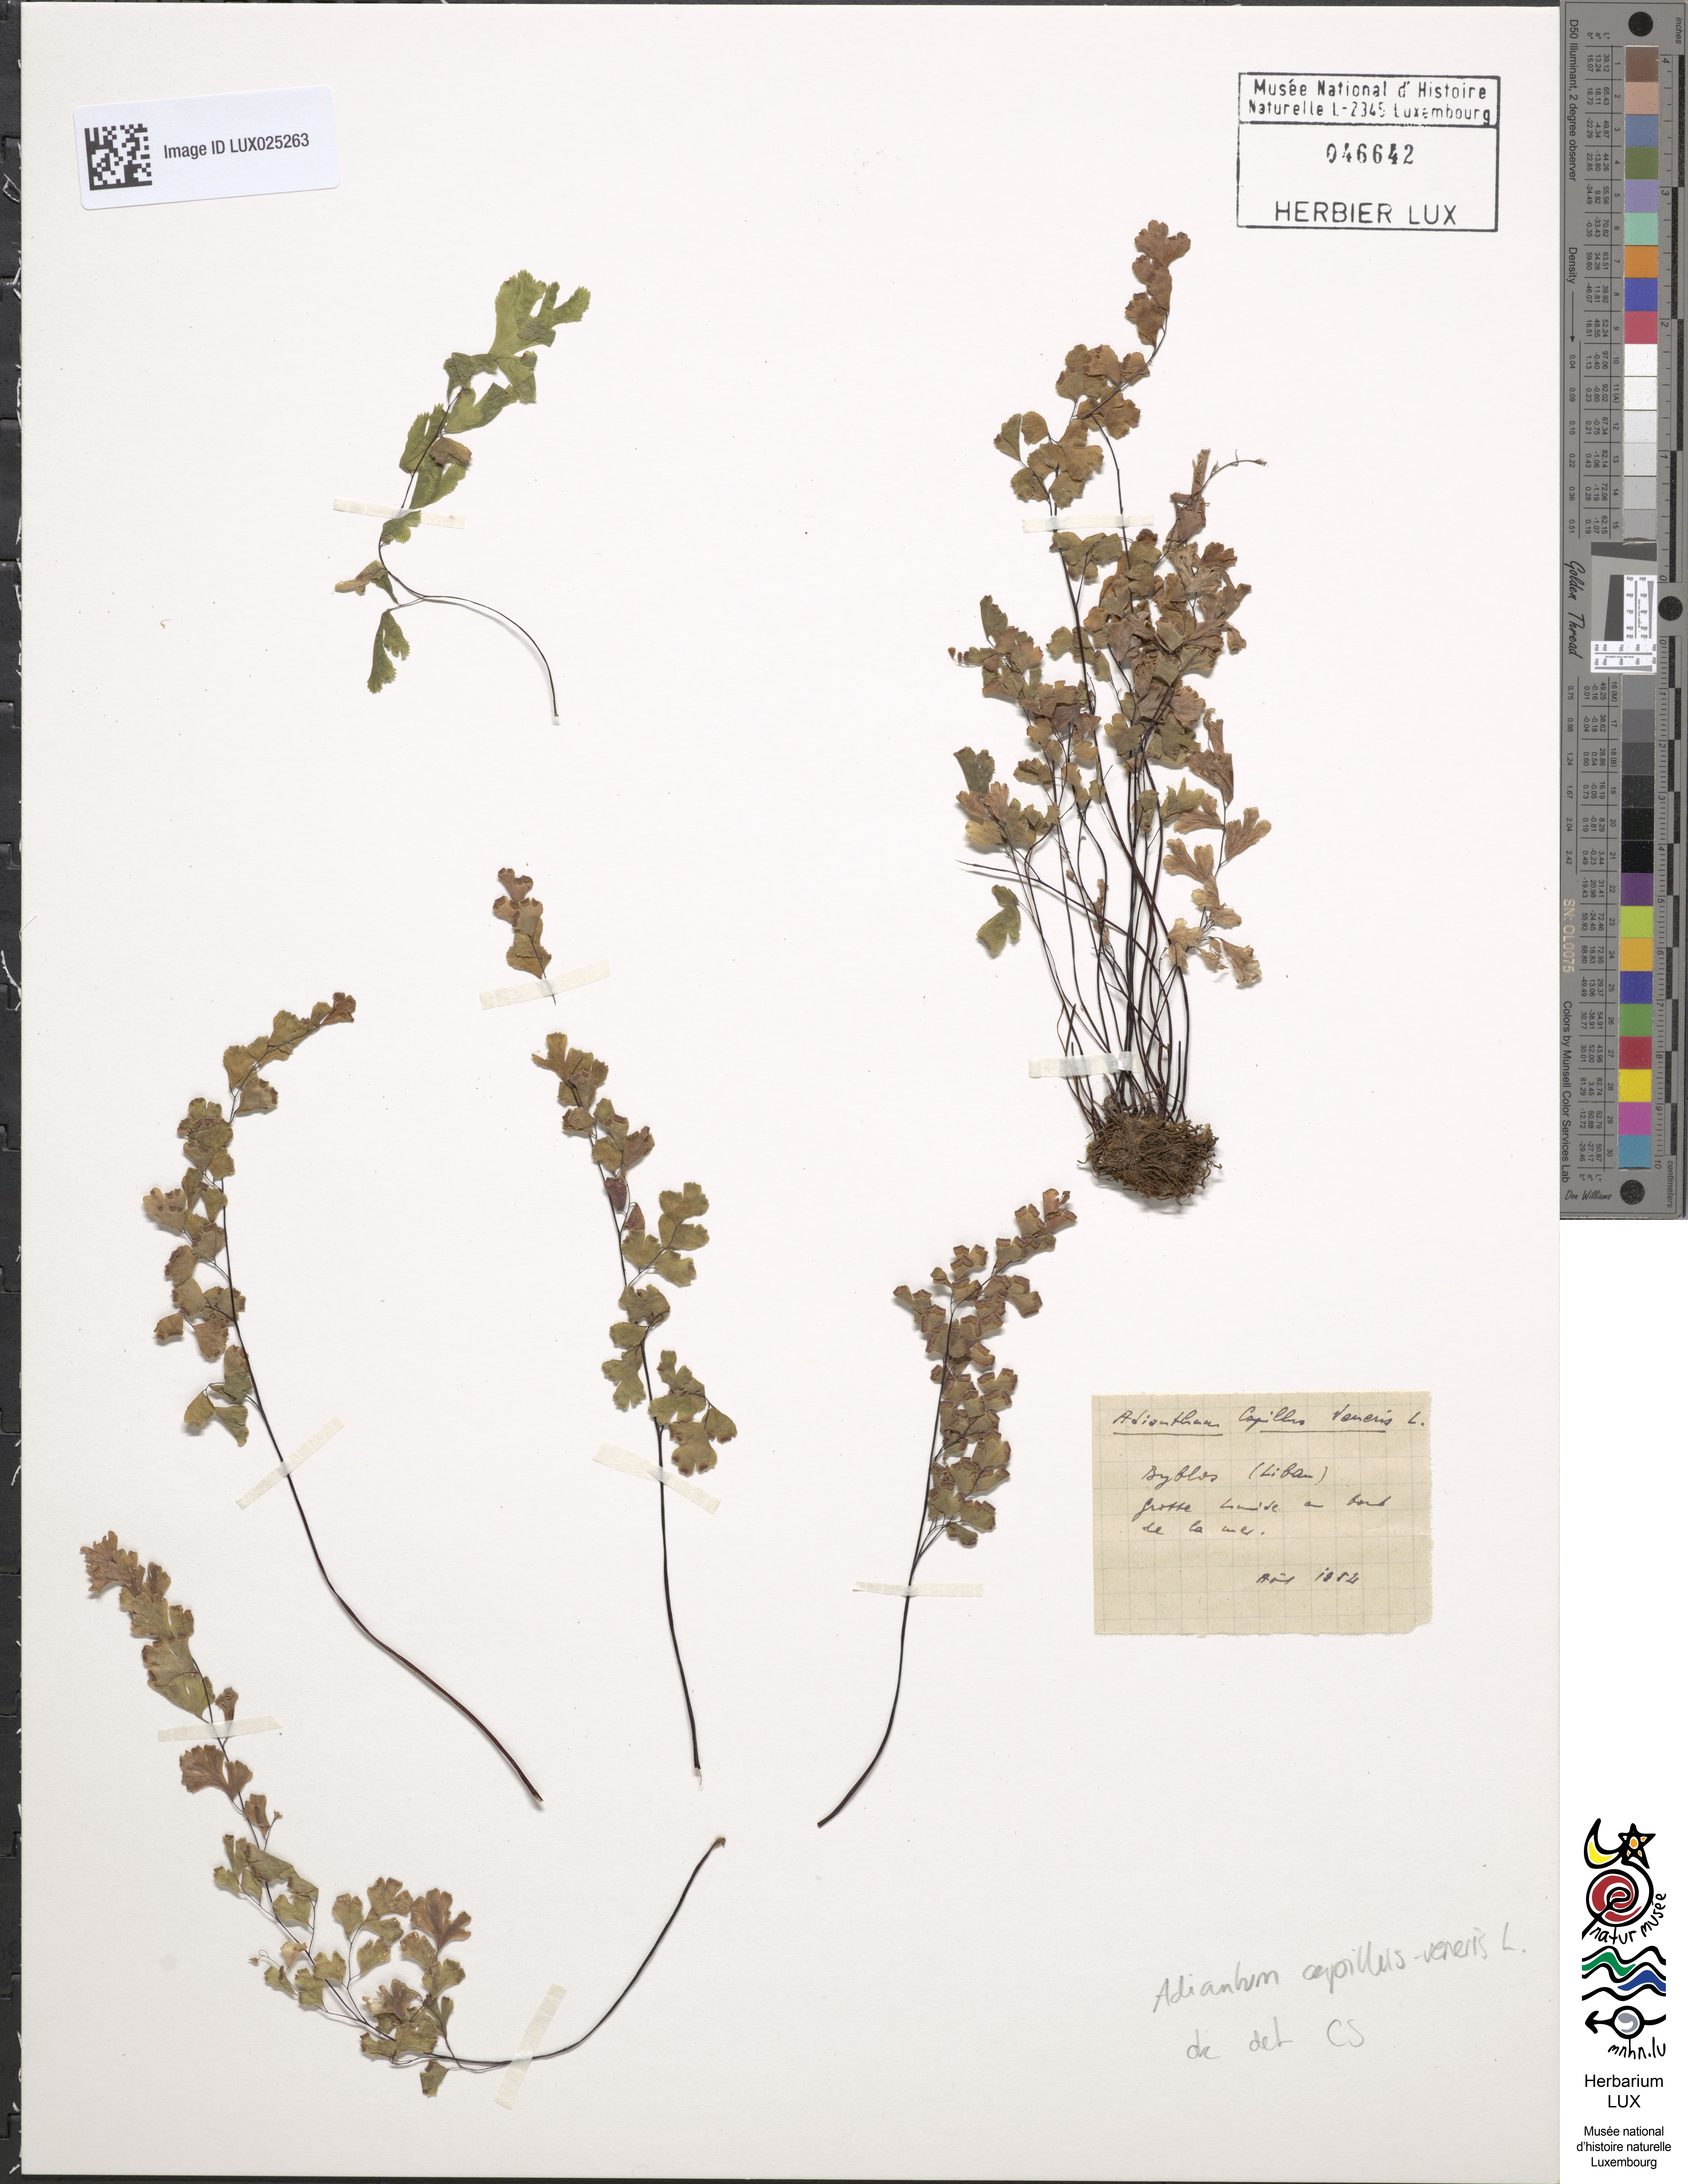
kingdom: Plantae
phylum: Tracheophyta
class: Polypodiopsida
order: Polypodiales
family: Pteridaceae
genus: Adiantum
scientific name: Adiantum capillus-veneris
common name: Maidenhair fern
